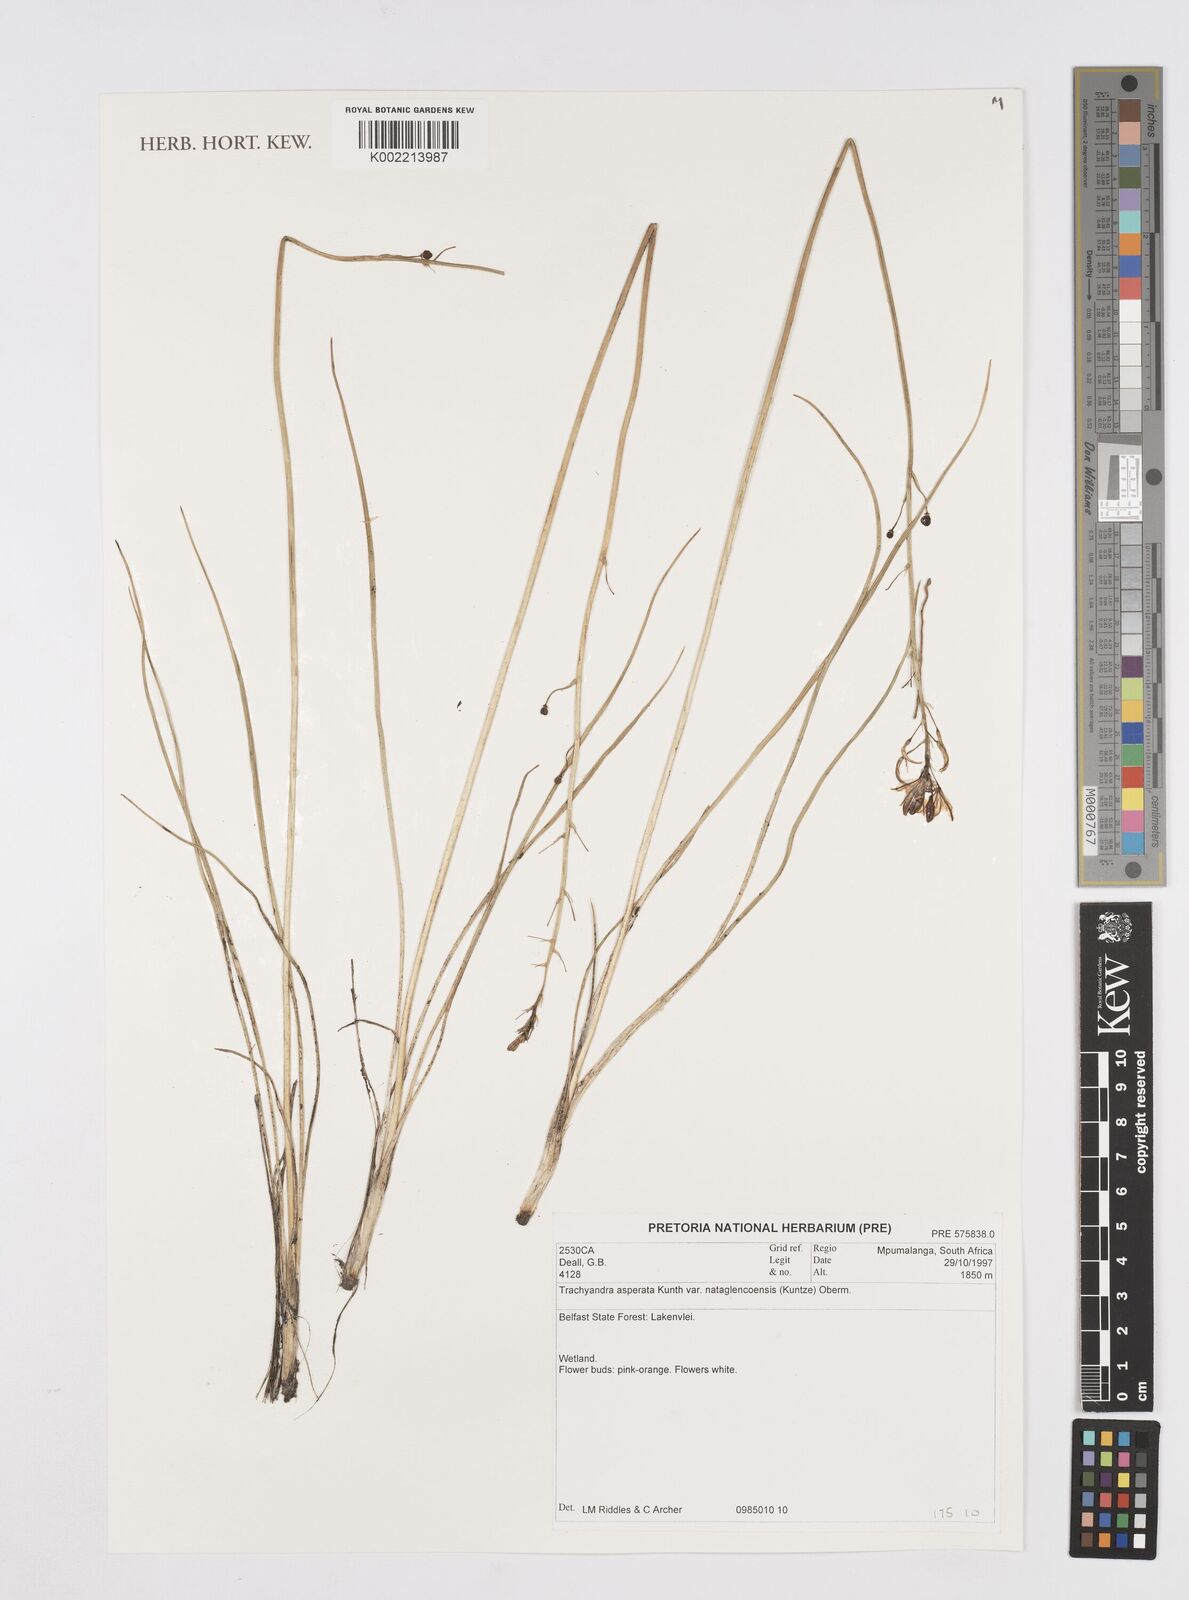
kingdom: Plantae
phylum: Tracheophyta
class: Liliopsida
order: Asparagales
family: Asphodelaceae
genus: Trachyandra
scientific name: Trachyandra asperata
